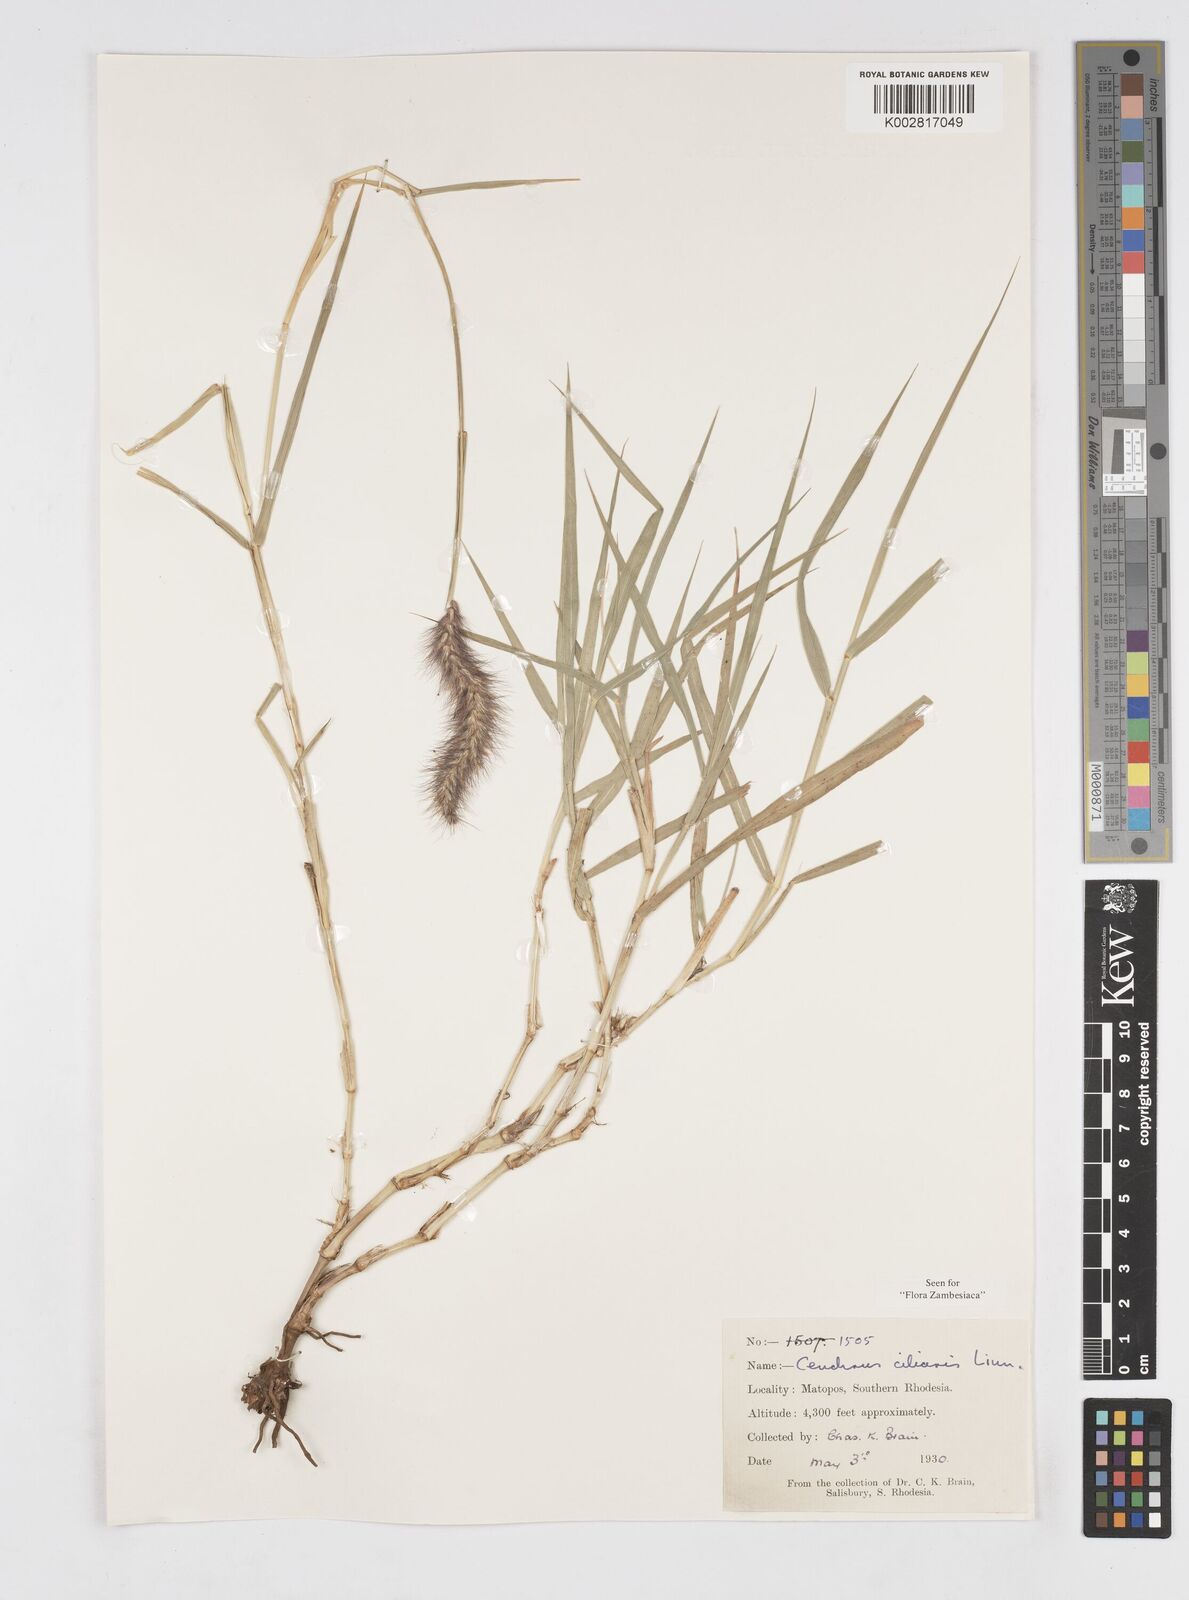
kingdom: Plantae
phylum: Tracheophyta
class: Liliopsida
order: Poales
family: Poaceae
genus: Cenchrus
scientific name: Cenchrus ciliaris
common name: Buffelgrass
